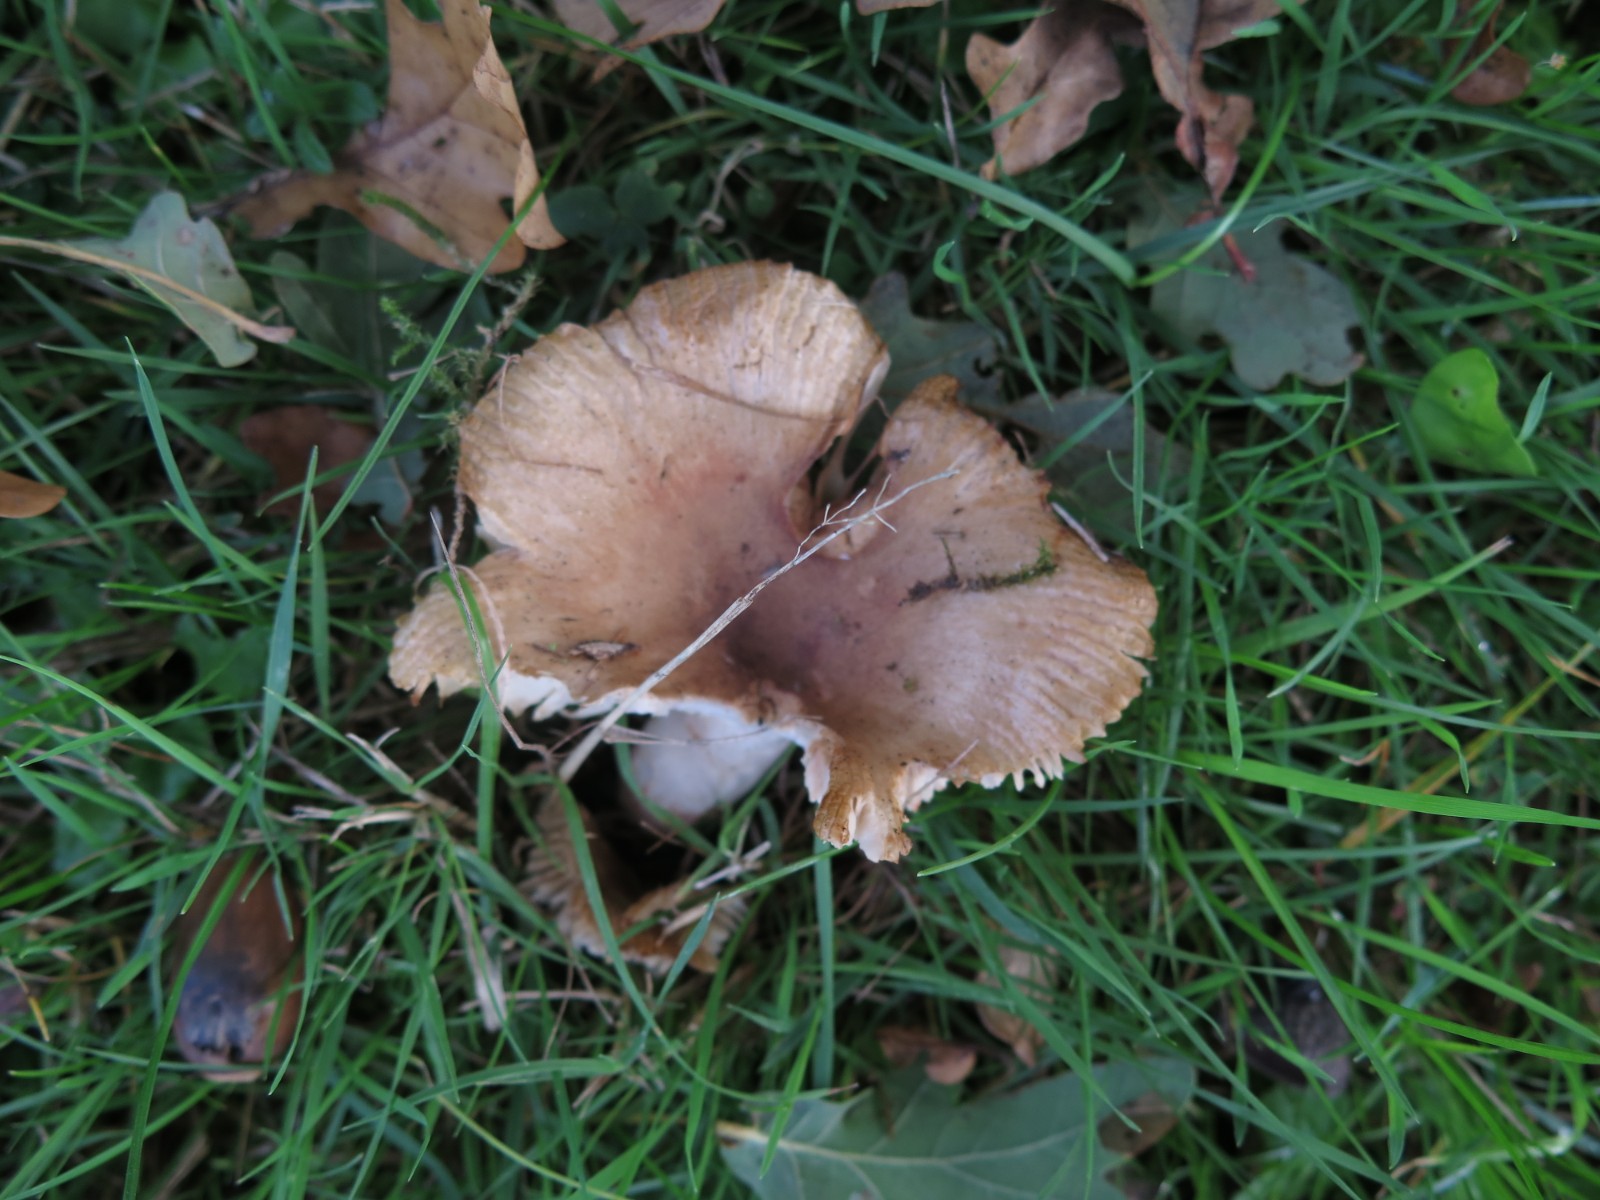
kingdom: Fungi
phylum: Basidiomycota
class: Agaricomycetes
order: Russulales
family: Russulaceae
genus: Russula
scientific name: Russula recondita
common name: mild kam-skørhat
